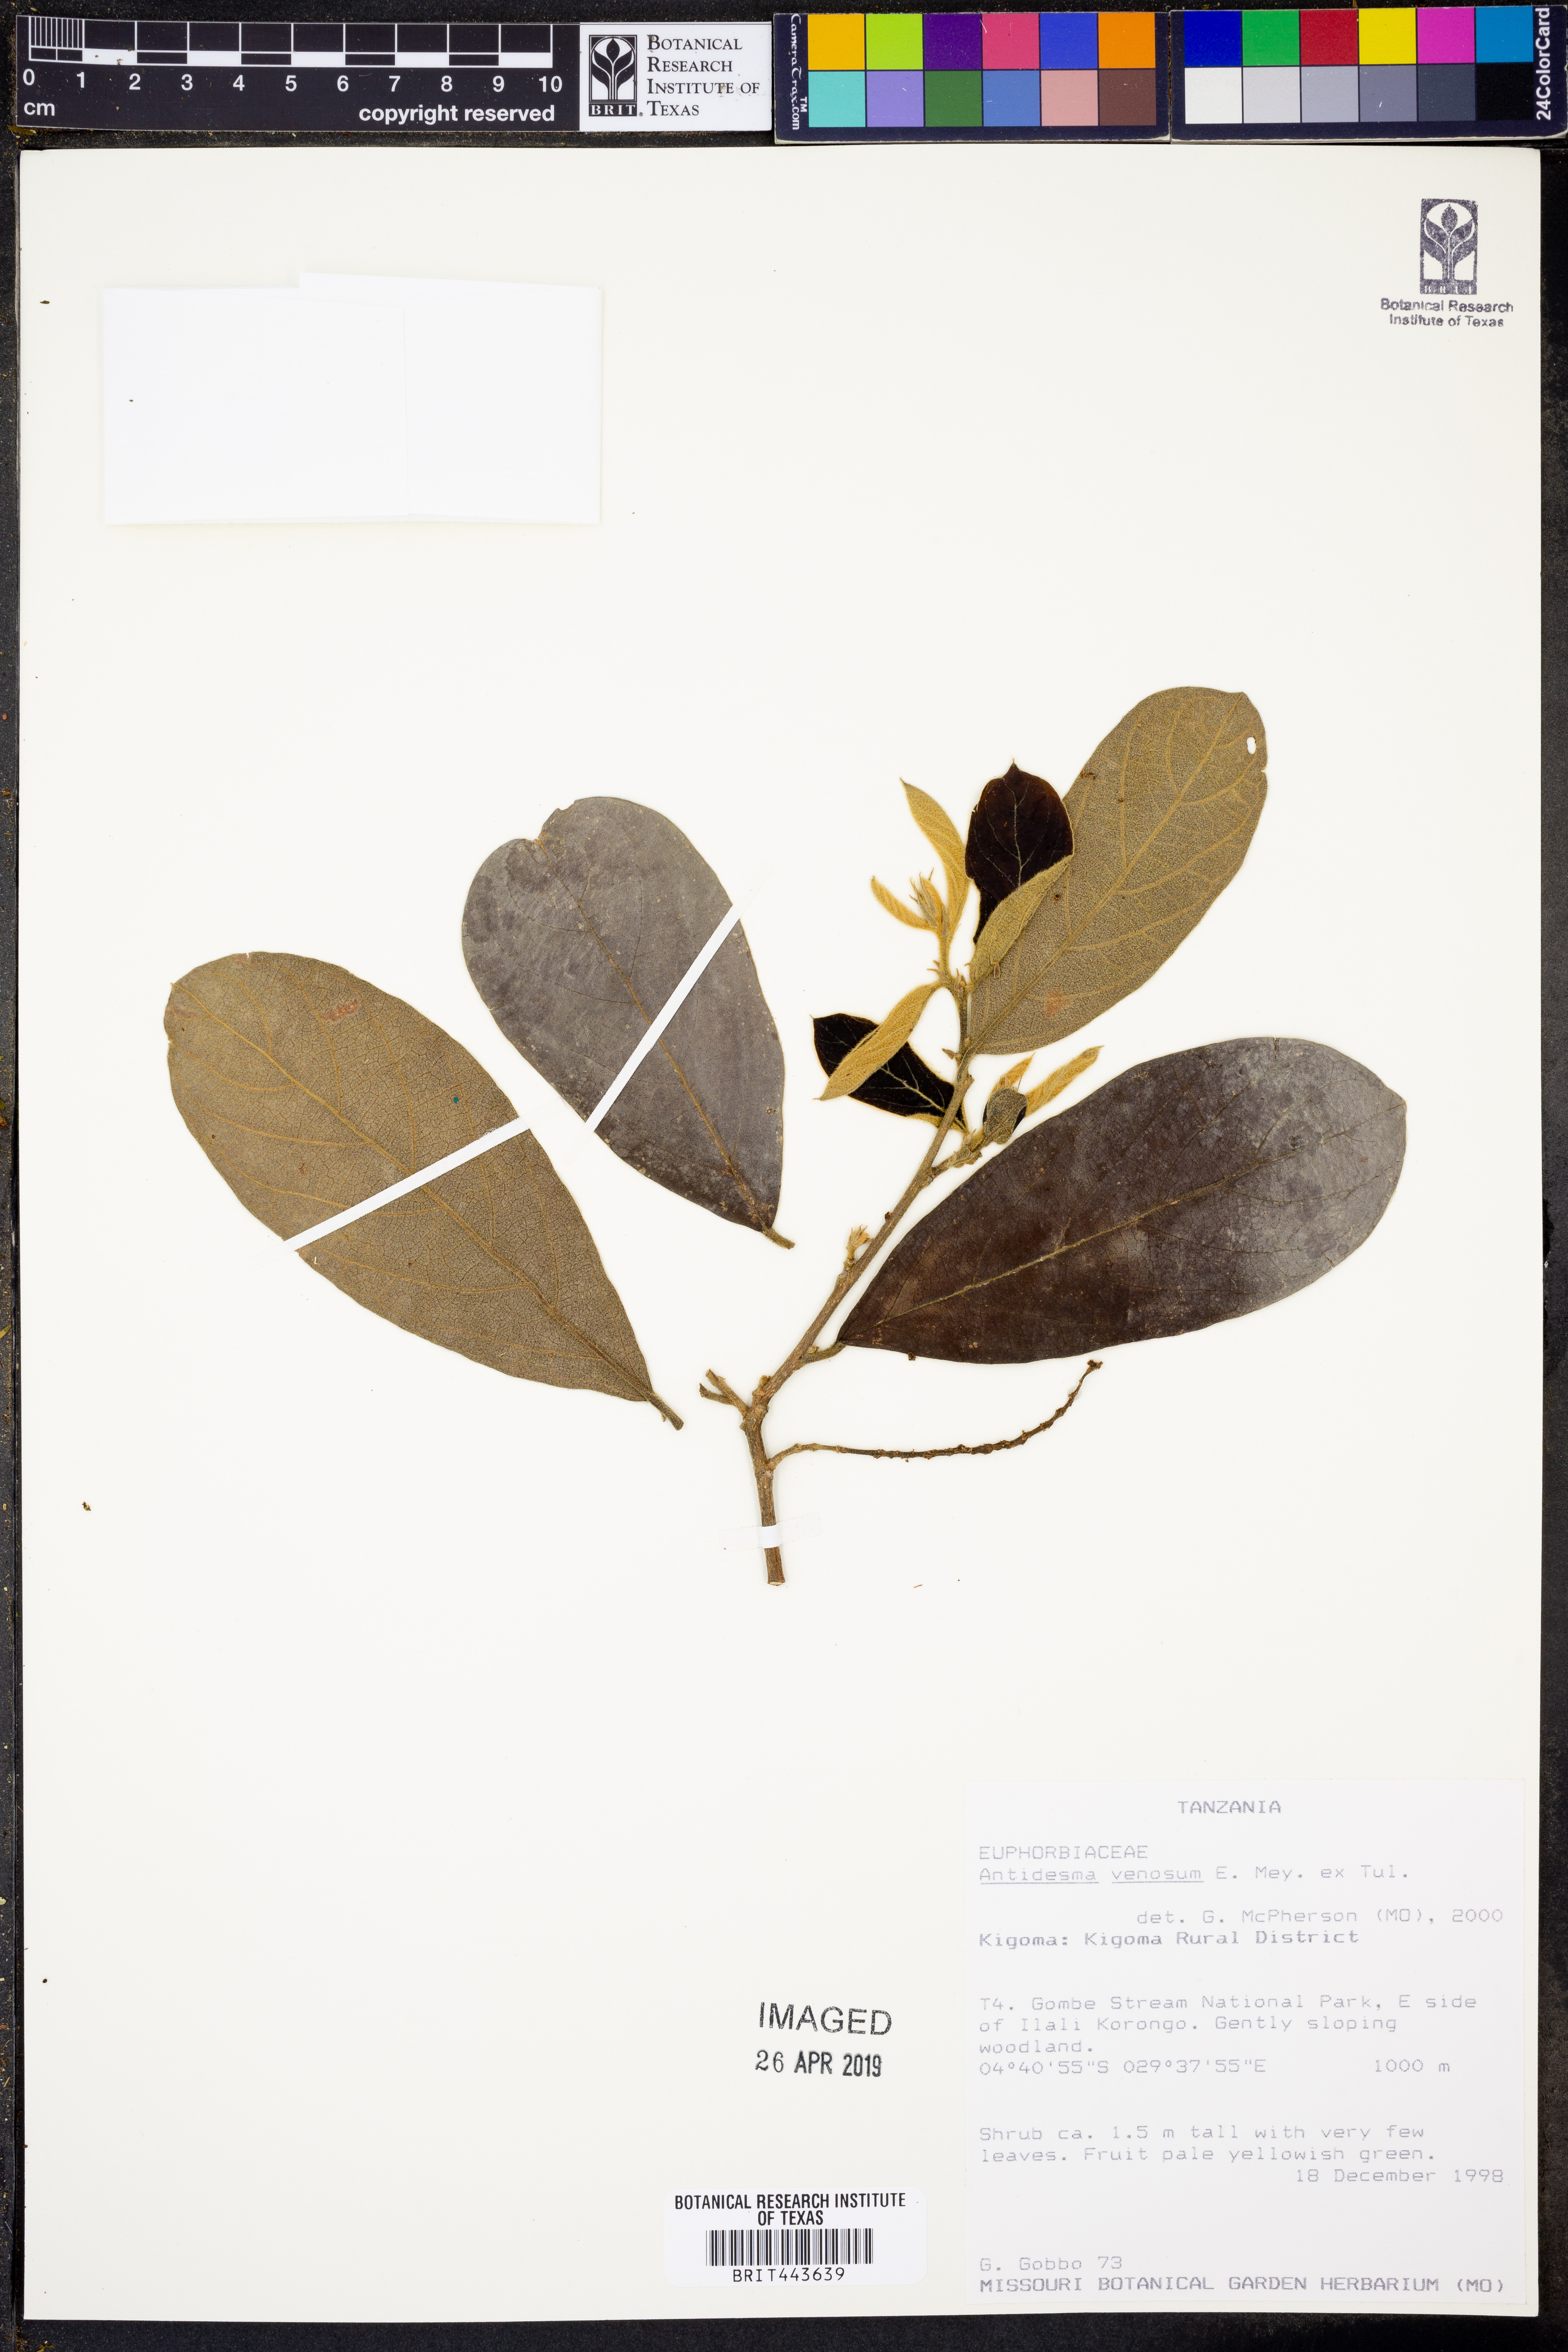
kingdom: Plantae
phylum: Tracheophyta
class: Magnoliopsida
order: Malpighiales
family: Phyllanthaceae
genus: Antidesma
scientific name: Antidesma venosum
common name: Tassel-berry
